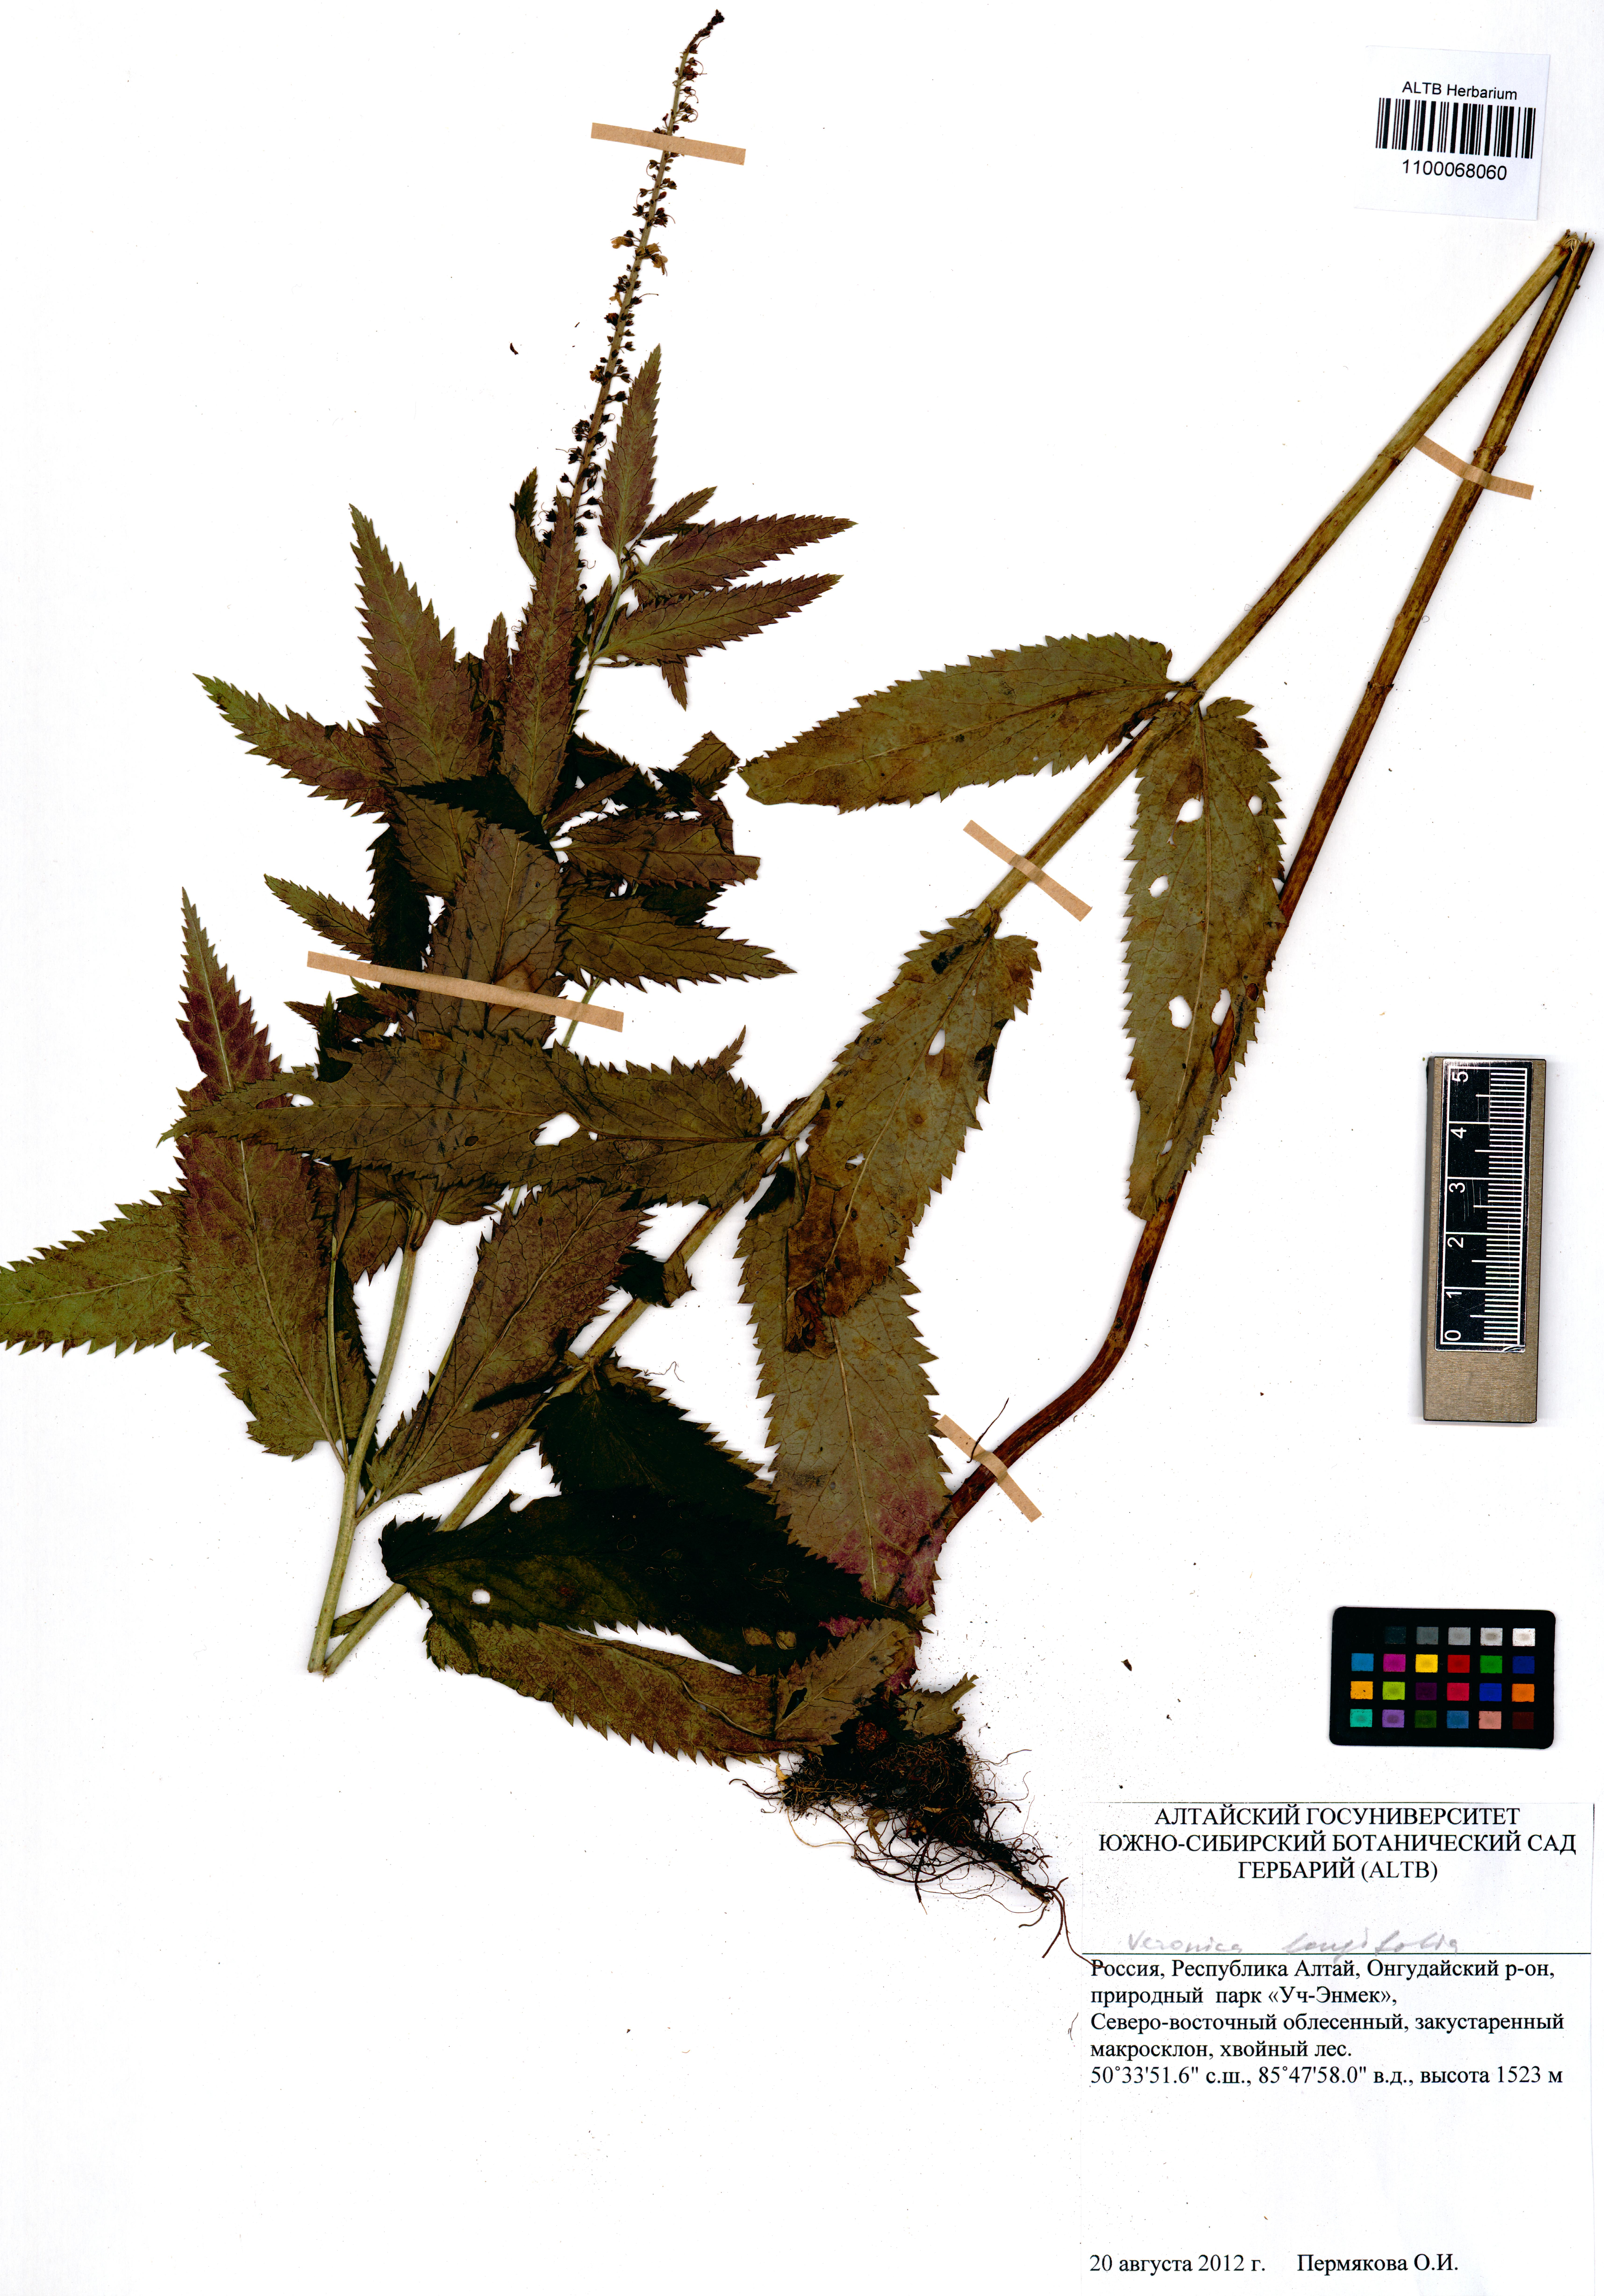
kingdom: Plantae
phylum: Tracheophyta
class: Magnoliopsida
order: Lamiales
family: Plantaginaceae
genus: Veronica
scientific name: Veronica longifolia
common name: Garden speedwell
